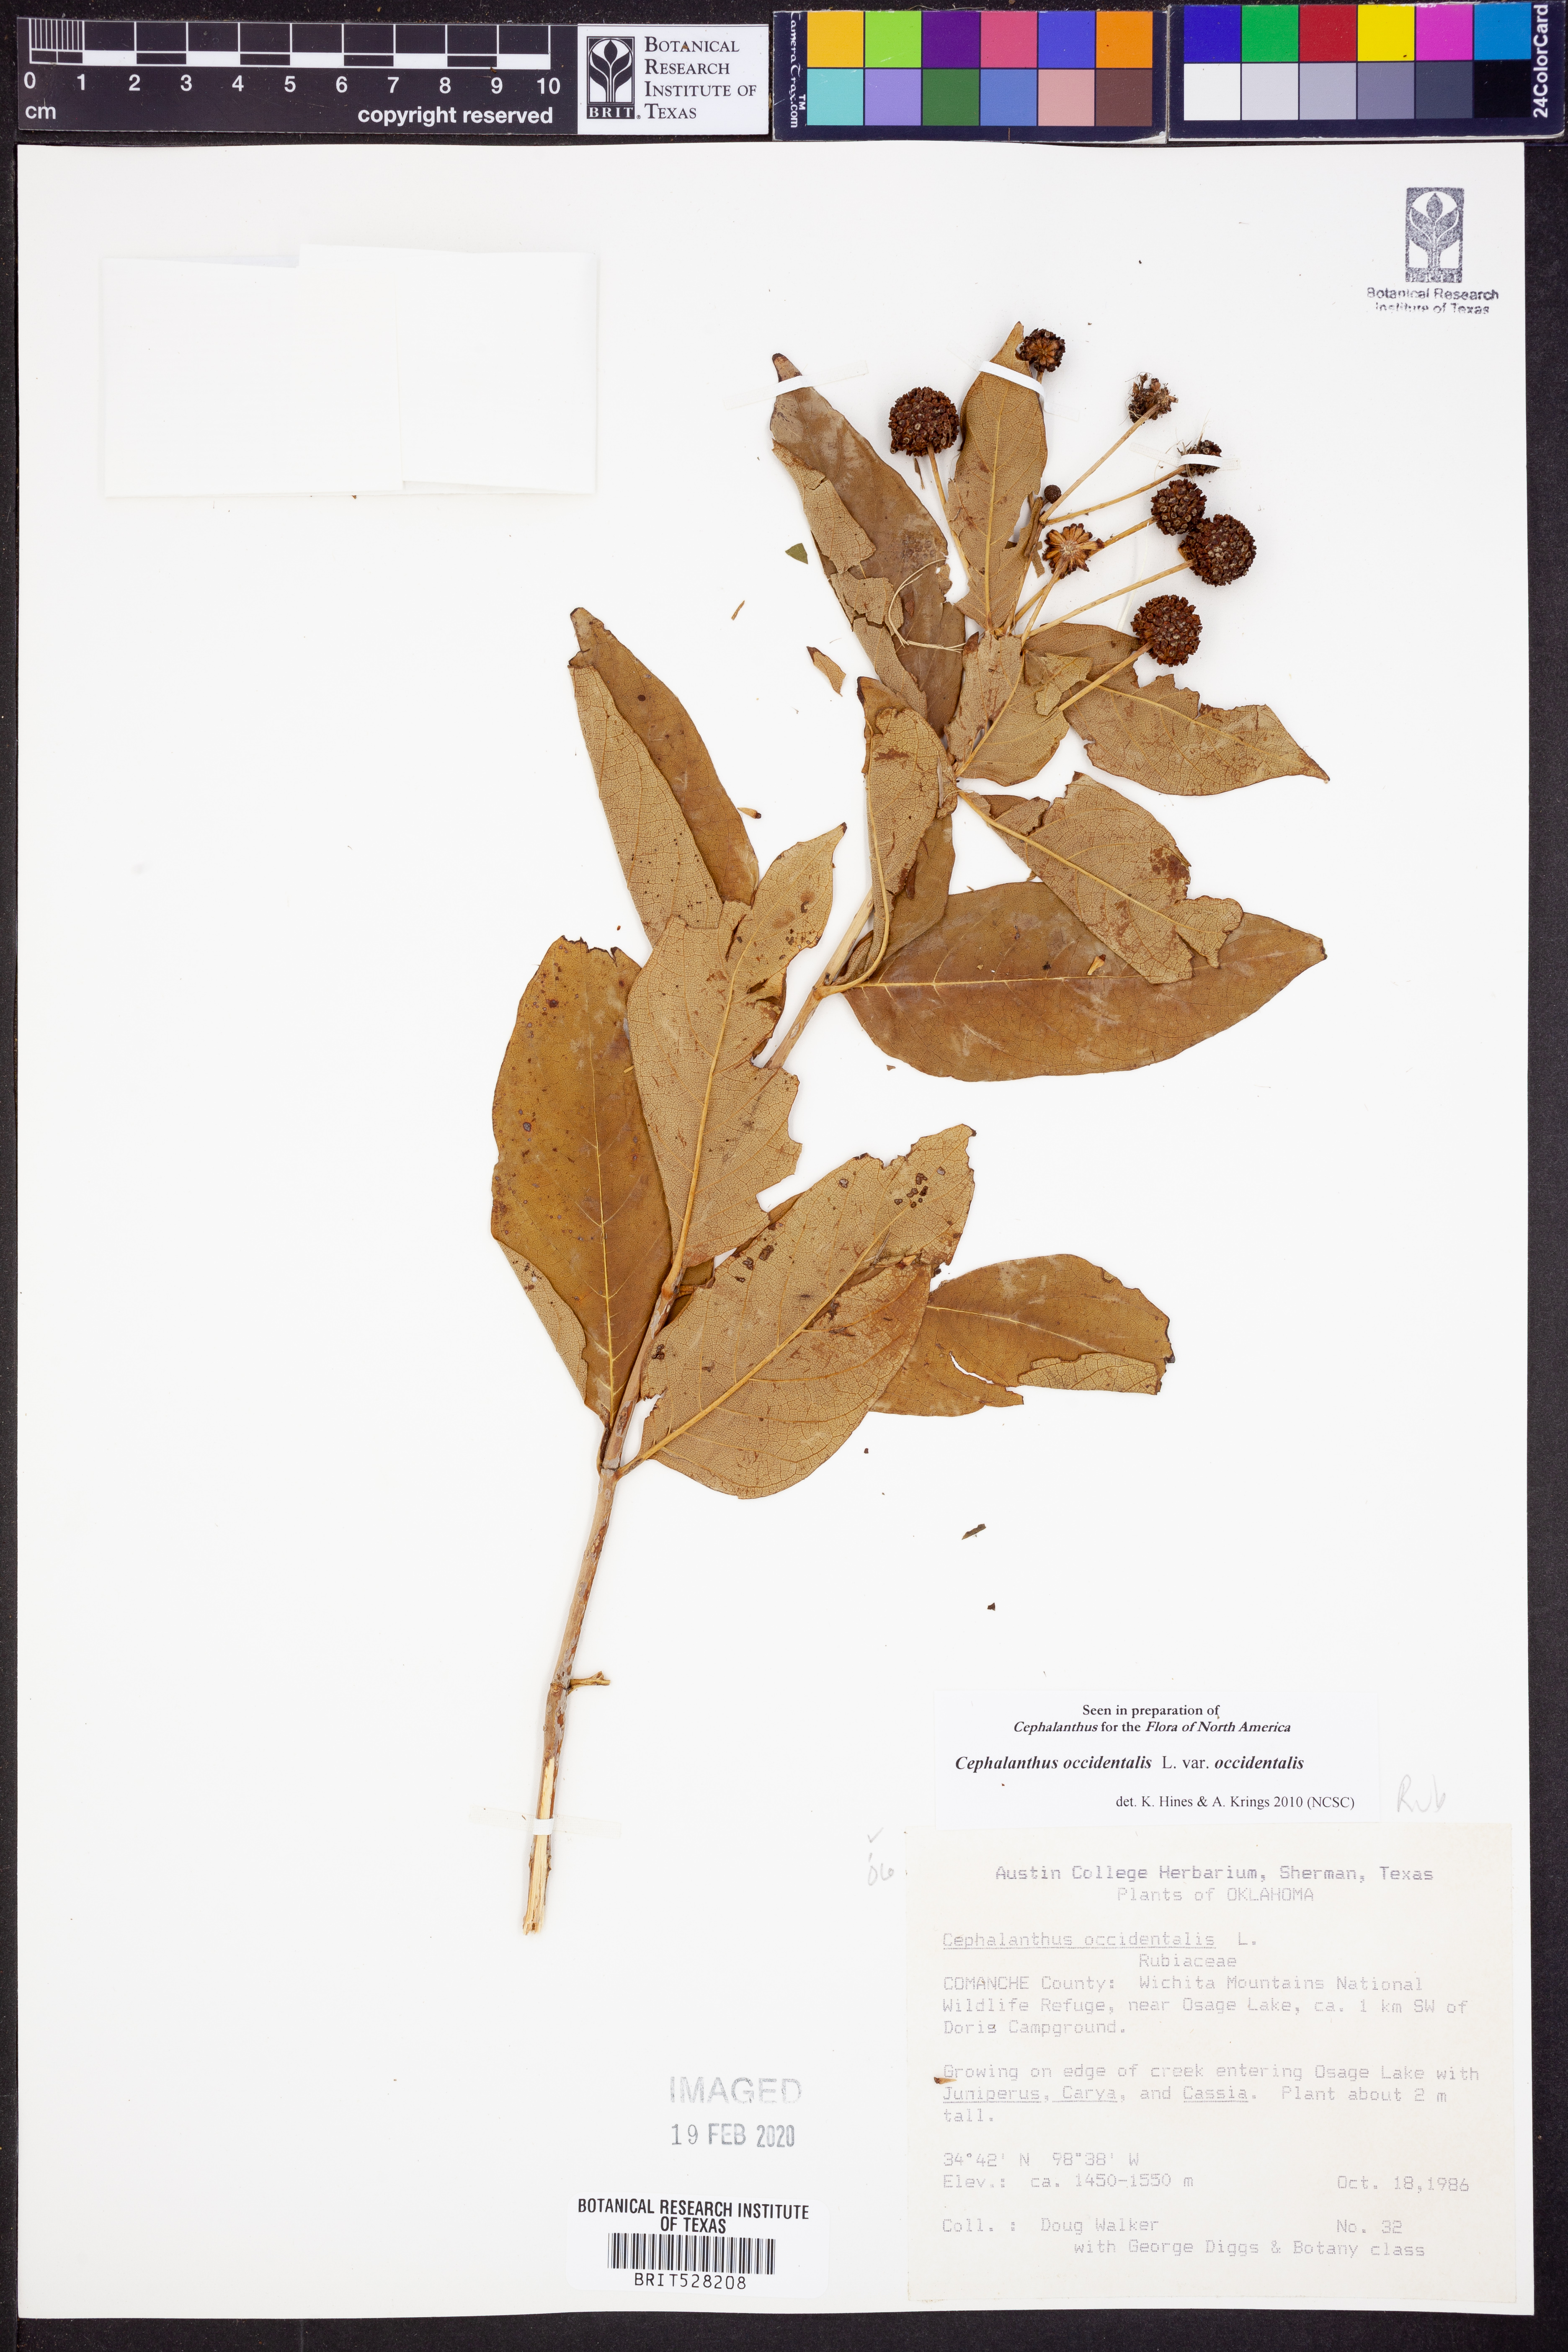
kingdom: Plantae
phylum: Tracheophyta
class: Magnoliopsida
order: Gentianales
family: Rubiaceae
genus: Cephalanthus
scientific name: Cephalanthus occidentalis
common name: Button-willow
